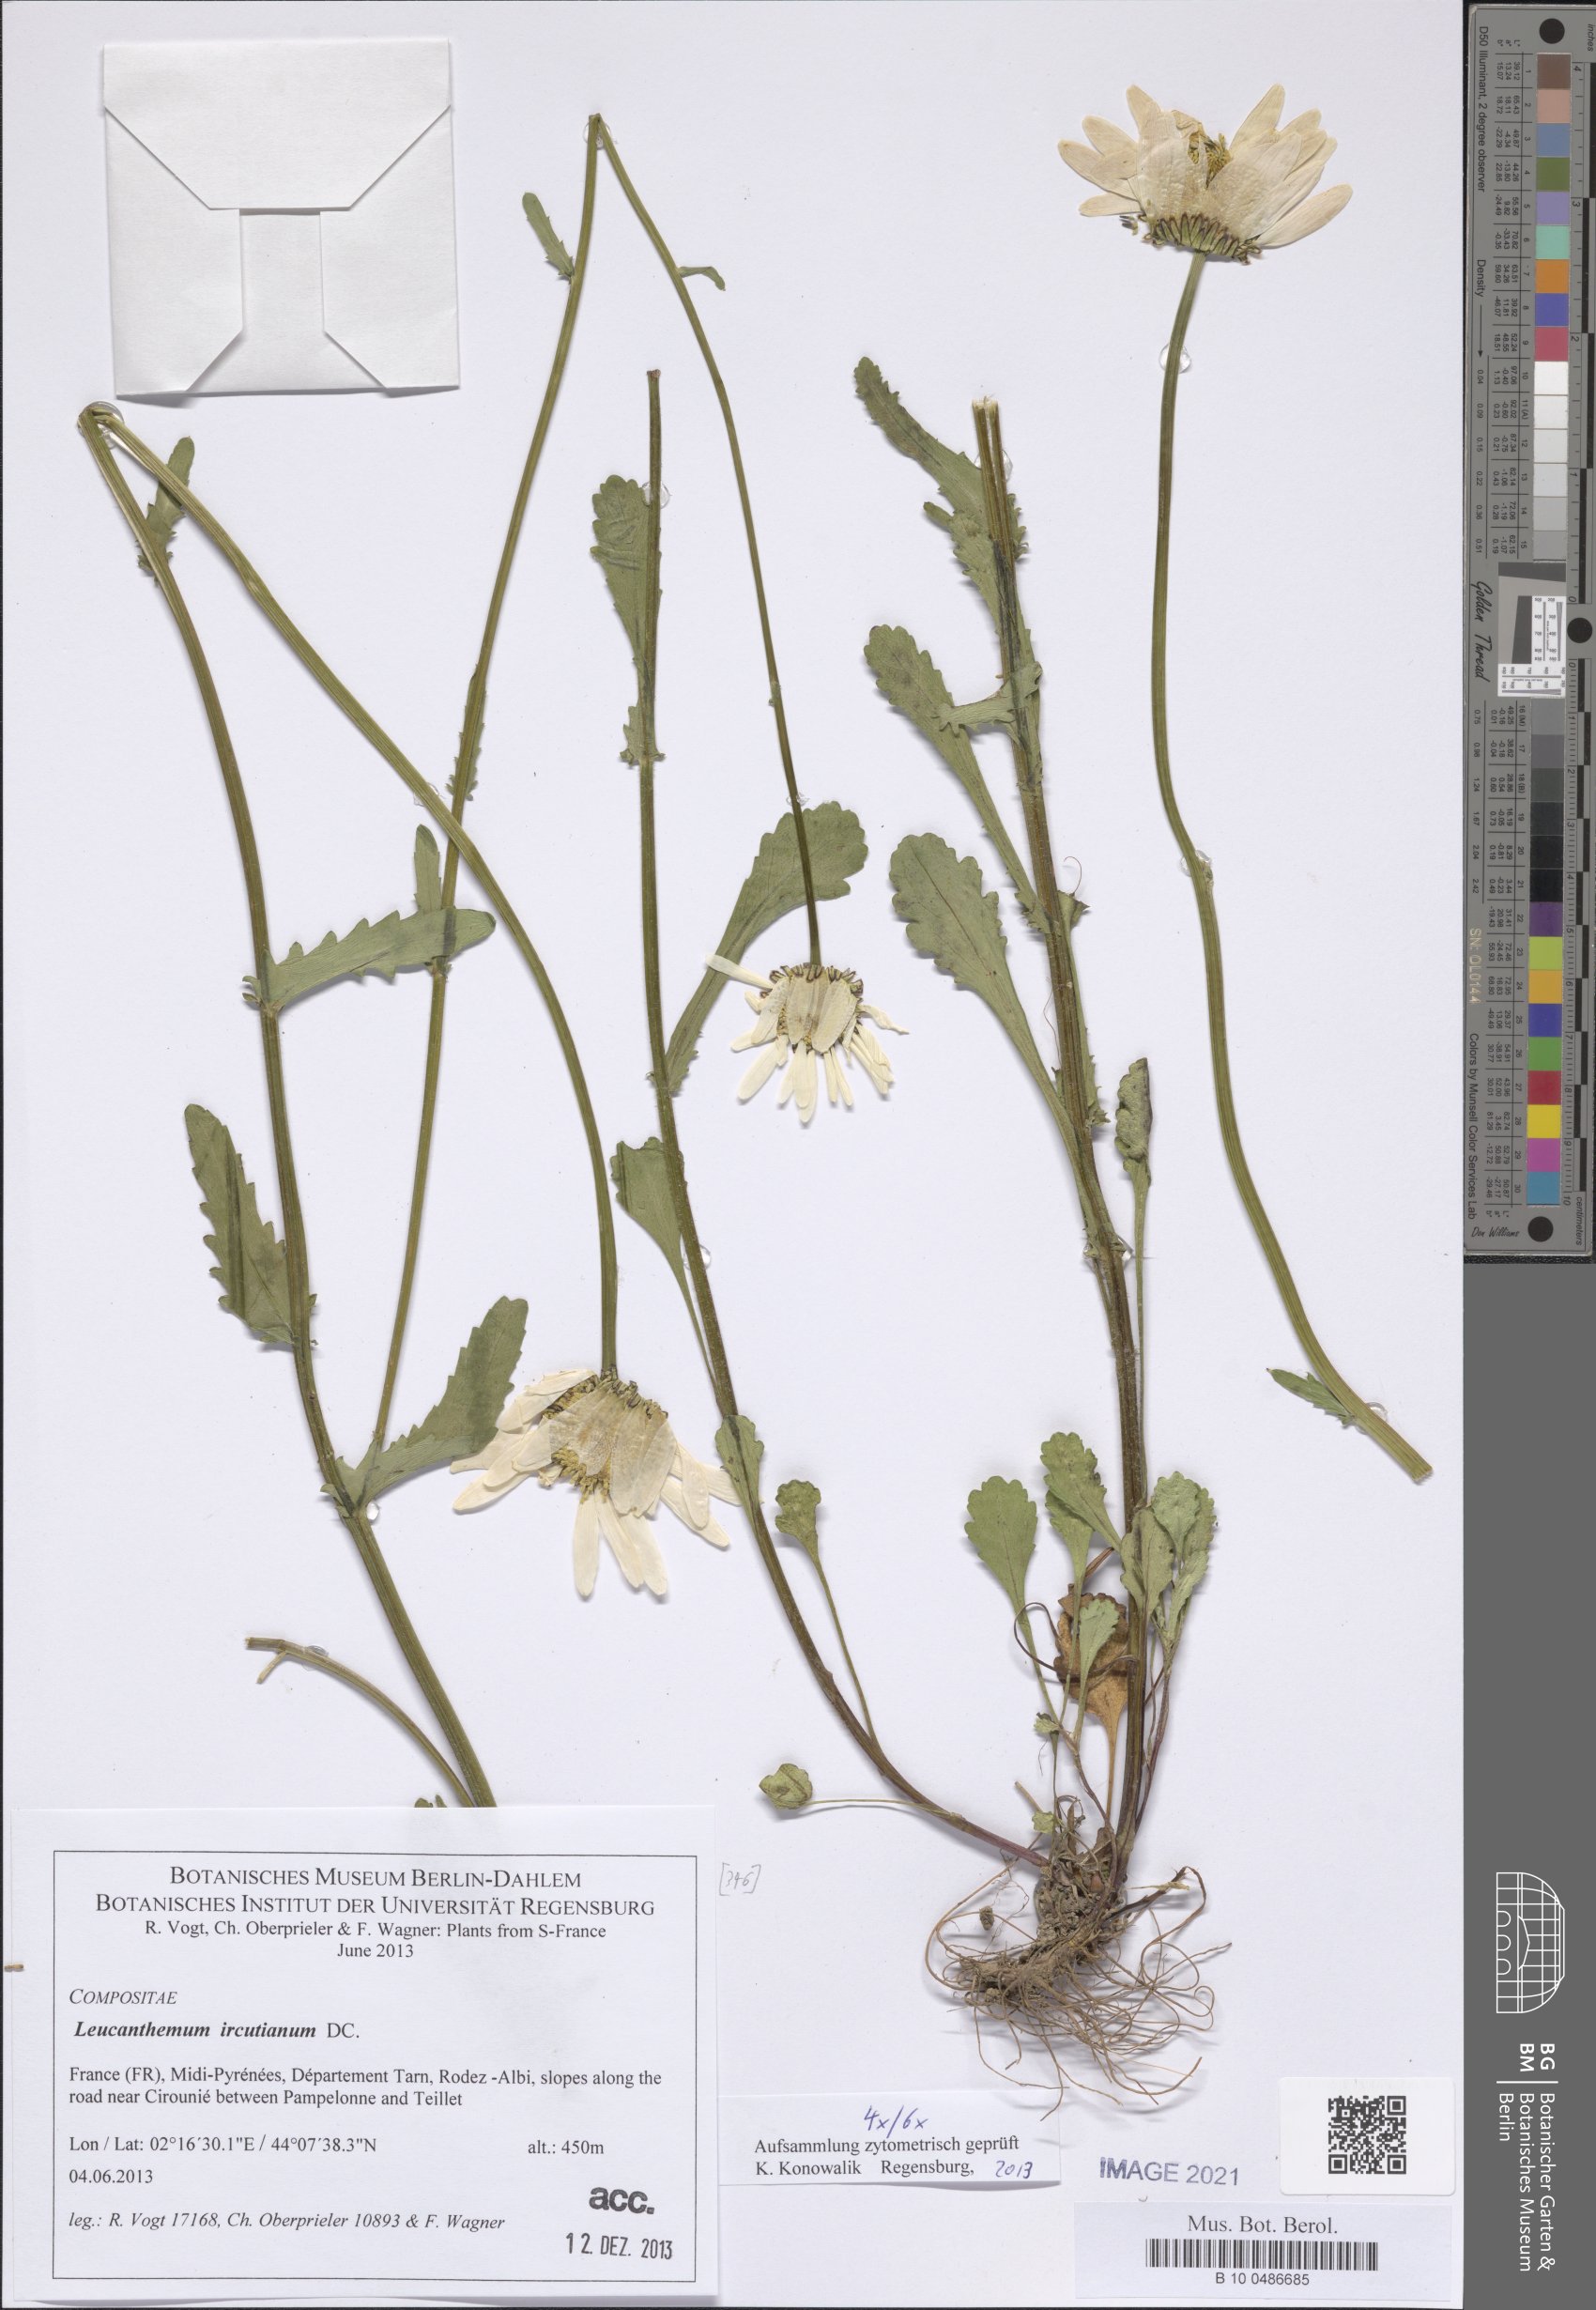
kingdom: Plantae
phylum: Tracheophyta
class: Magnoliopsida
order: Asterales
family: Asteraceae
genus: Leucanthemum
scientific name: Leucanthemum ircutianum
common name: Daisy
